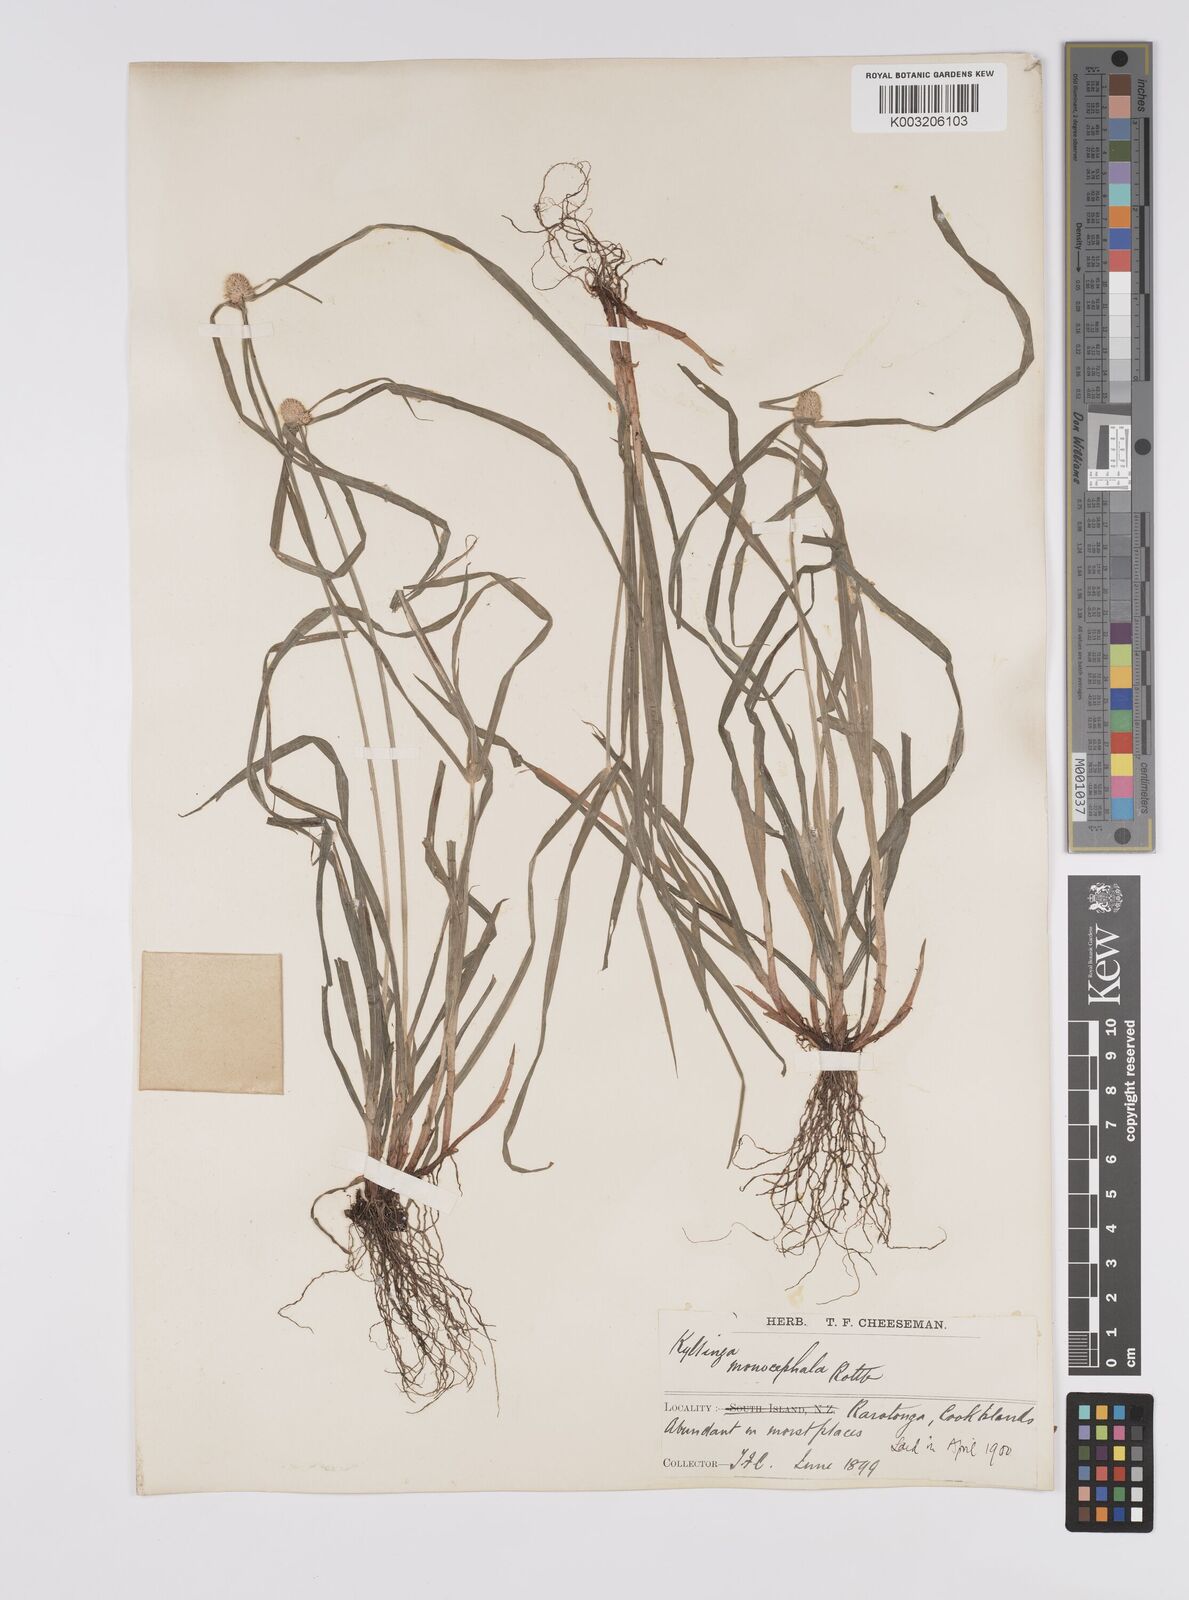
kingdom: Plantae
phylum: Tracheophyta
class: Liliopsida
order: Poales
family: Cyperaceae
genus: Cyperus
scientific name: Cyperus nemoralis
